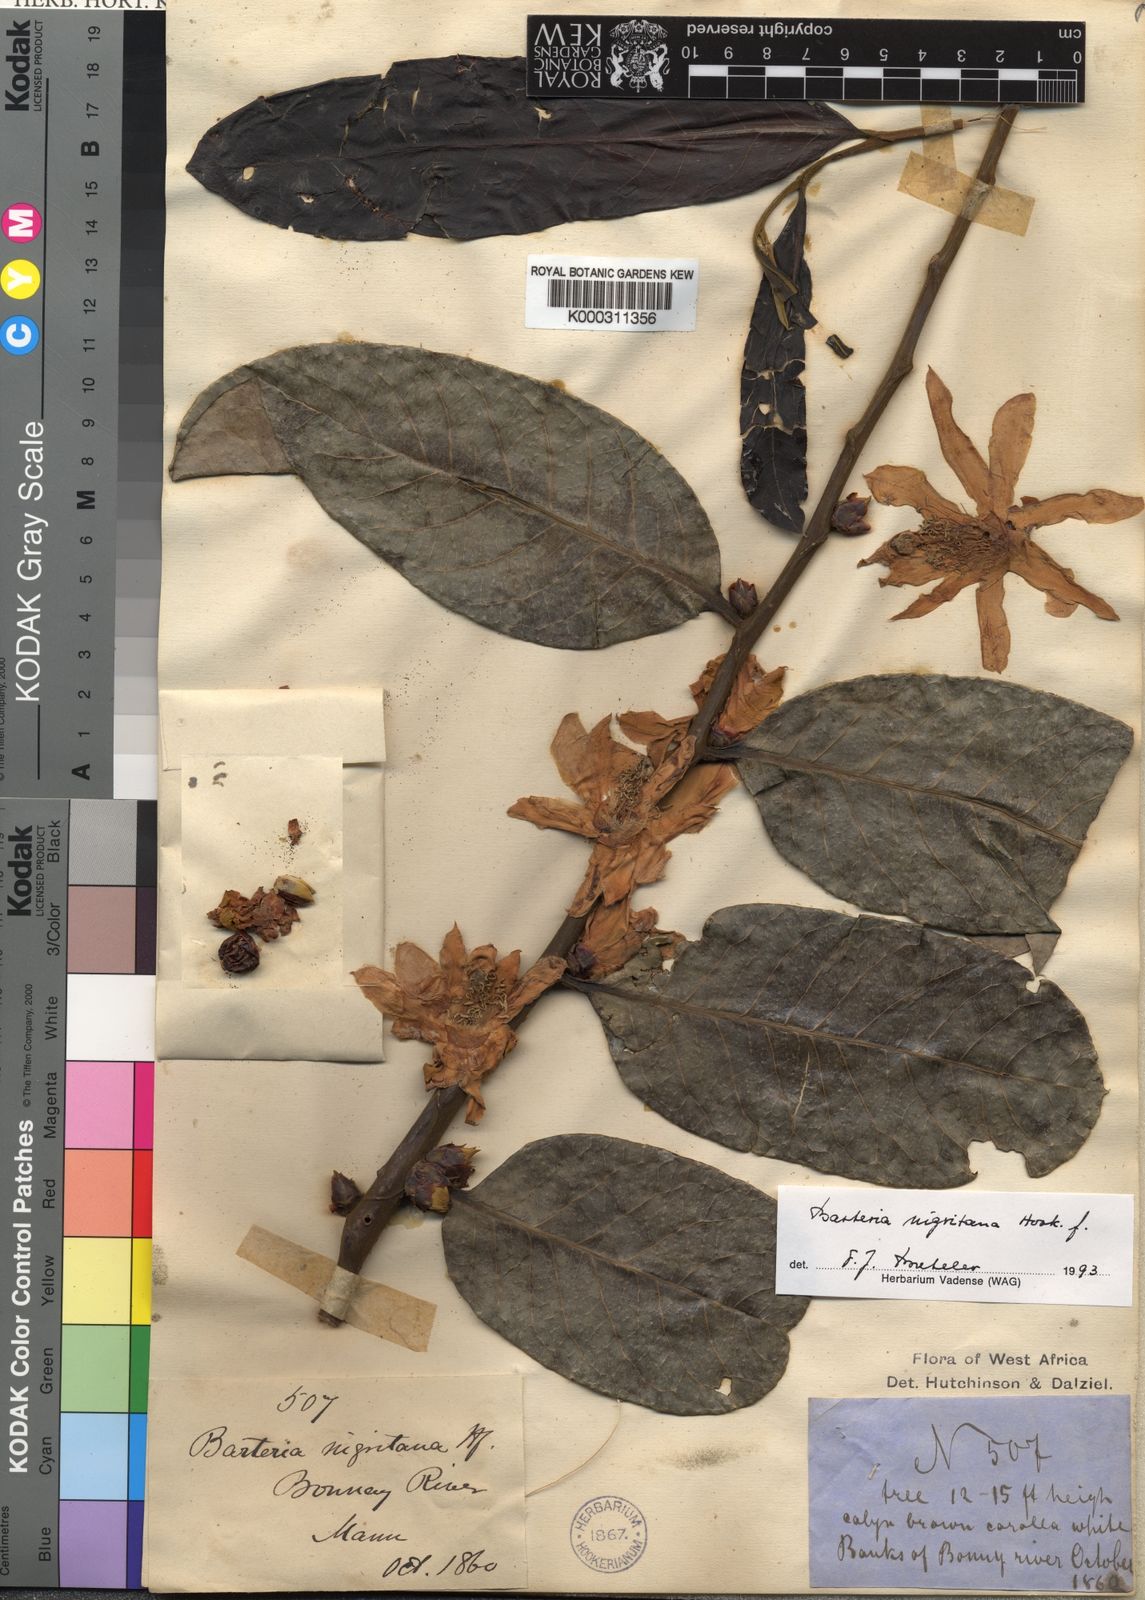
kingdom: Plantae
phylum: Tracheophyta
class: Magnoliopsida
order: Malpighiales
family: Passifloraceae
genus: Barteria
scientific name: Barteria nigritana
